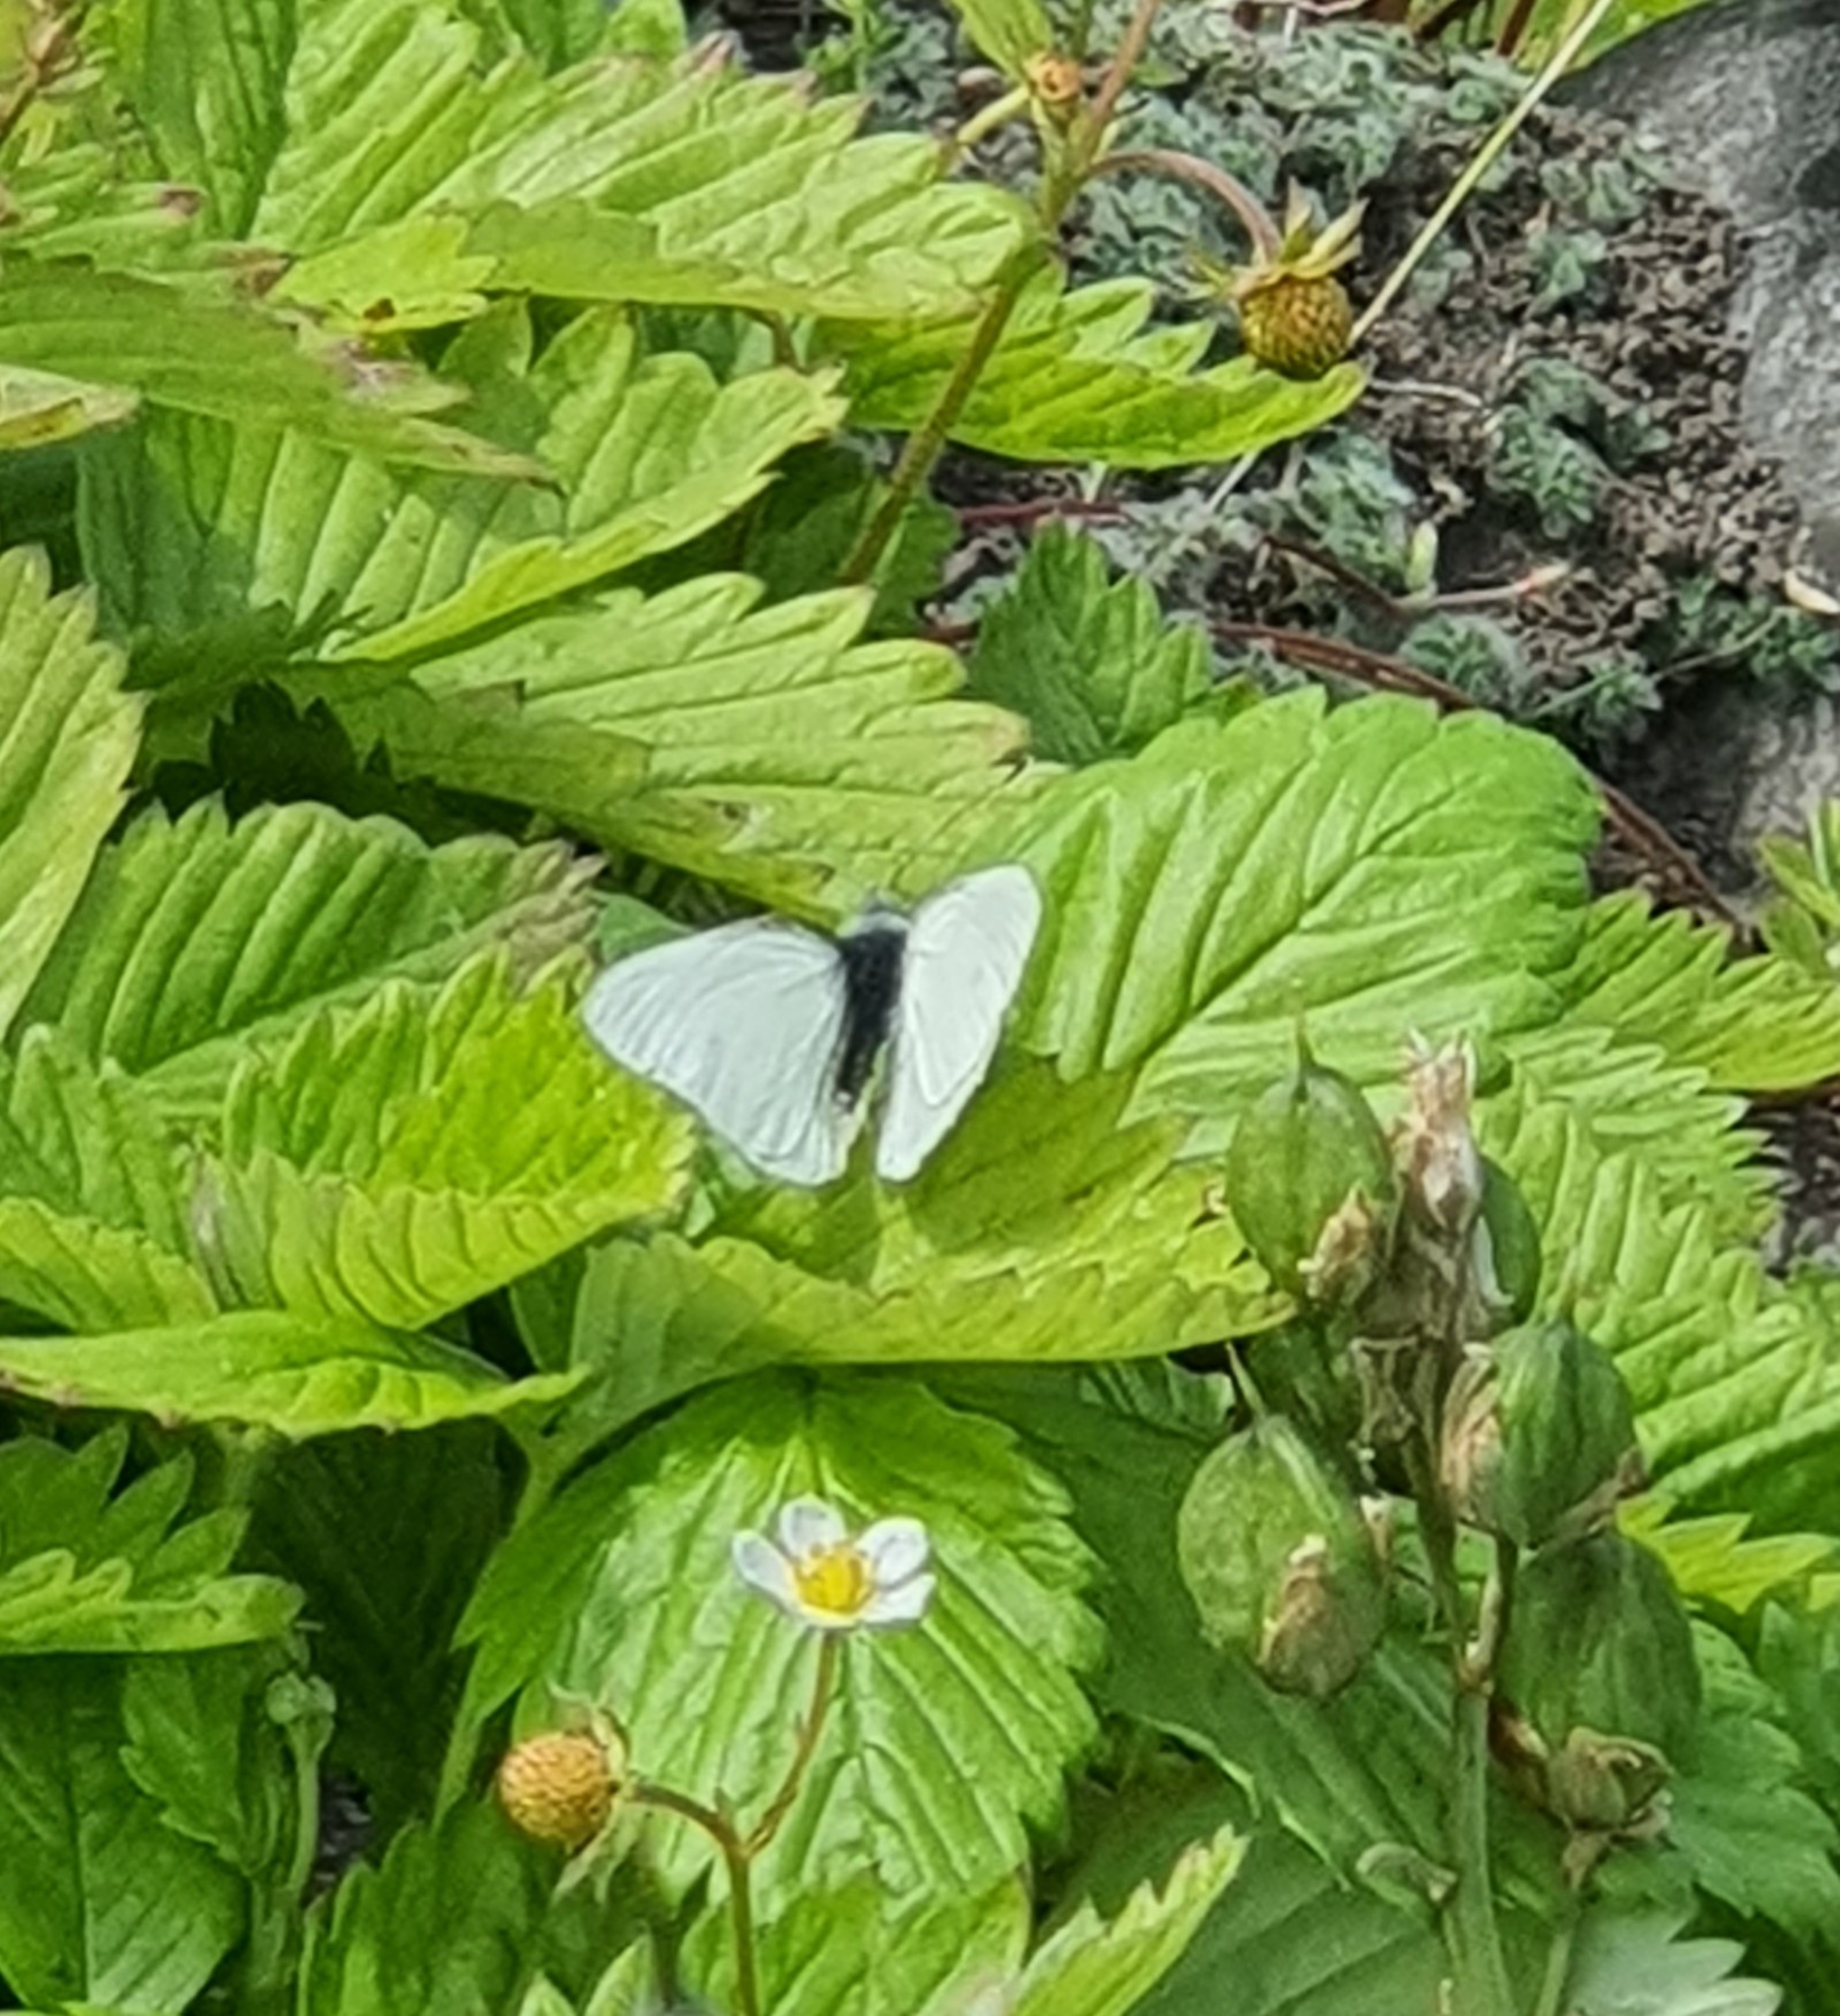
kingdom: Animalia
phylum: Arthropoda
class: Insecta
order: Lepidoptera
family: Pieridae
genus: Pieris
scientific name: Pieris rapae
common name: Lille kålsommerfugl
